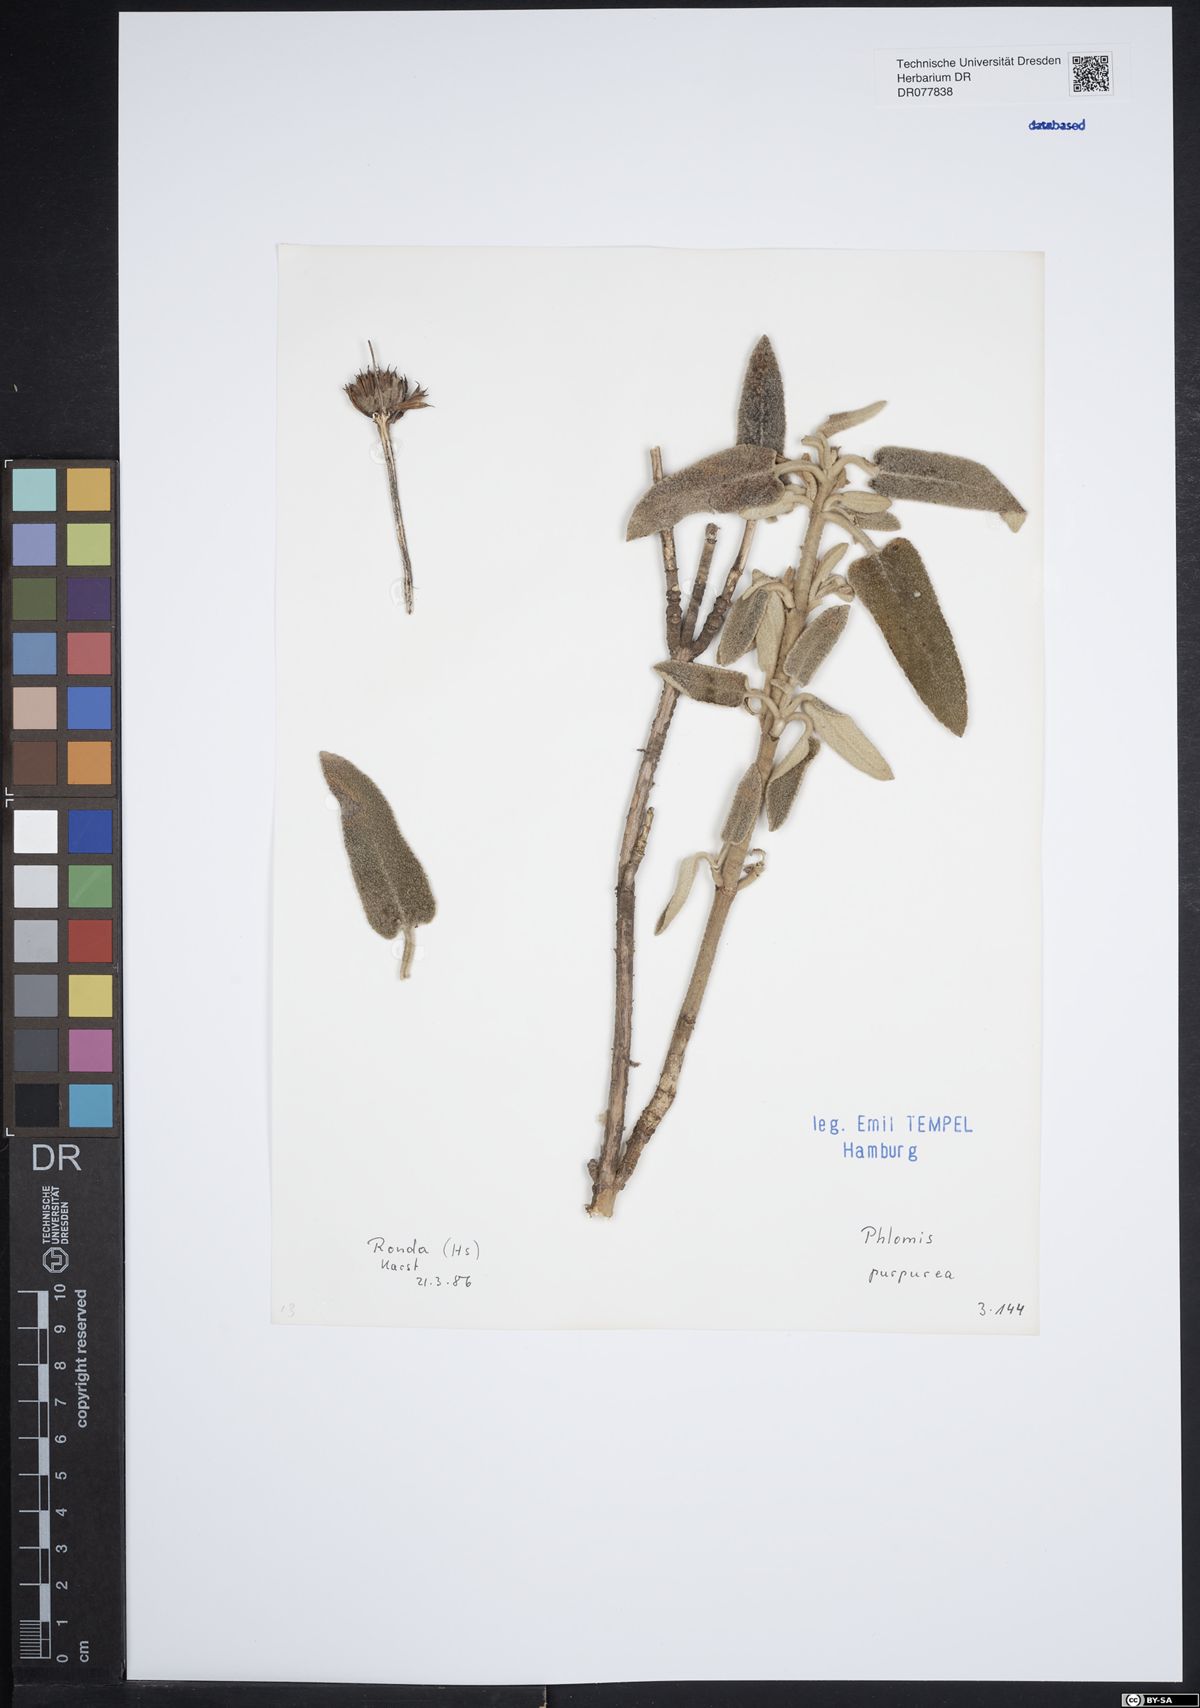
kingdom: Plantae
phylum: Tracheophyta
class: Magnoliopsida
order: Lamiales
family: Lamiaceae
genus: Phlomis
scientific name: Phlomis purpurea
